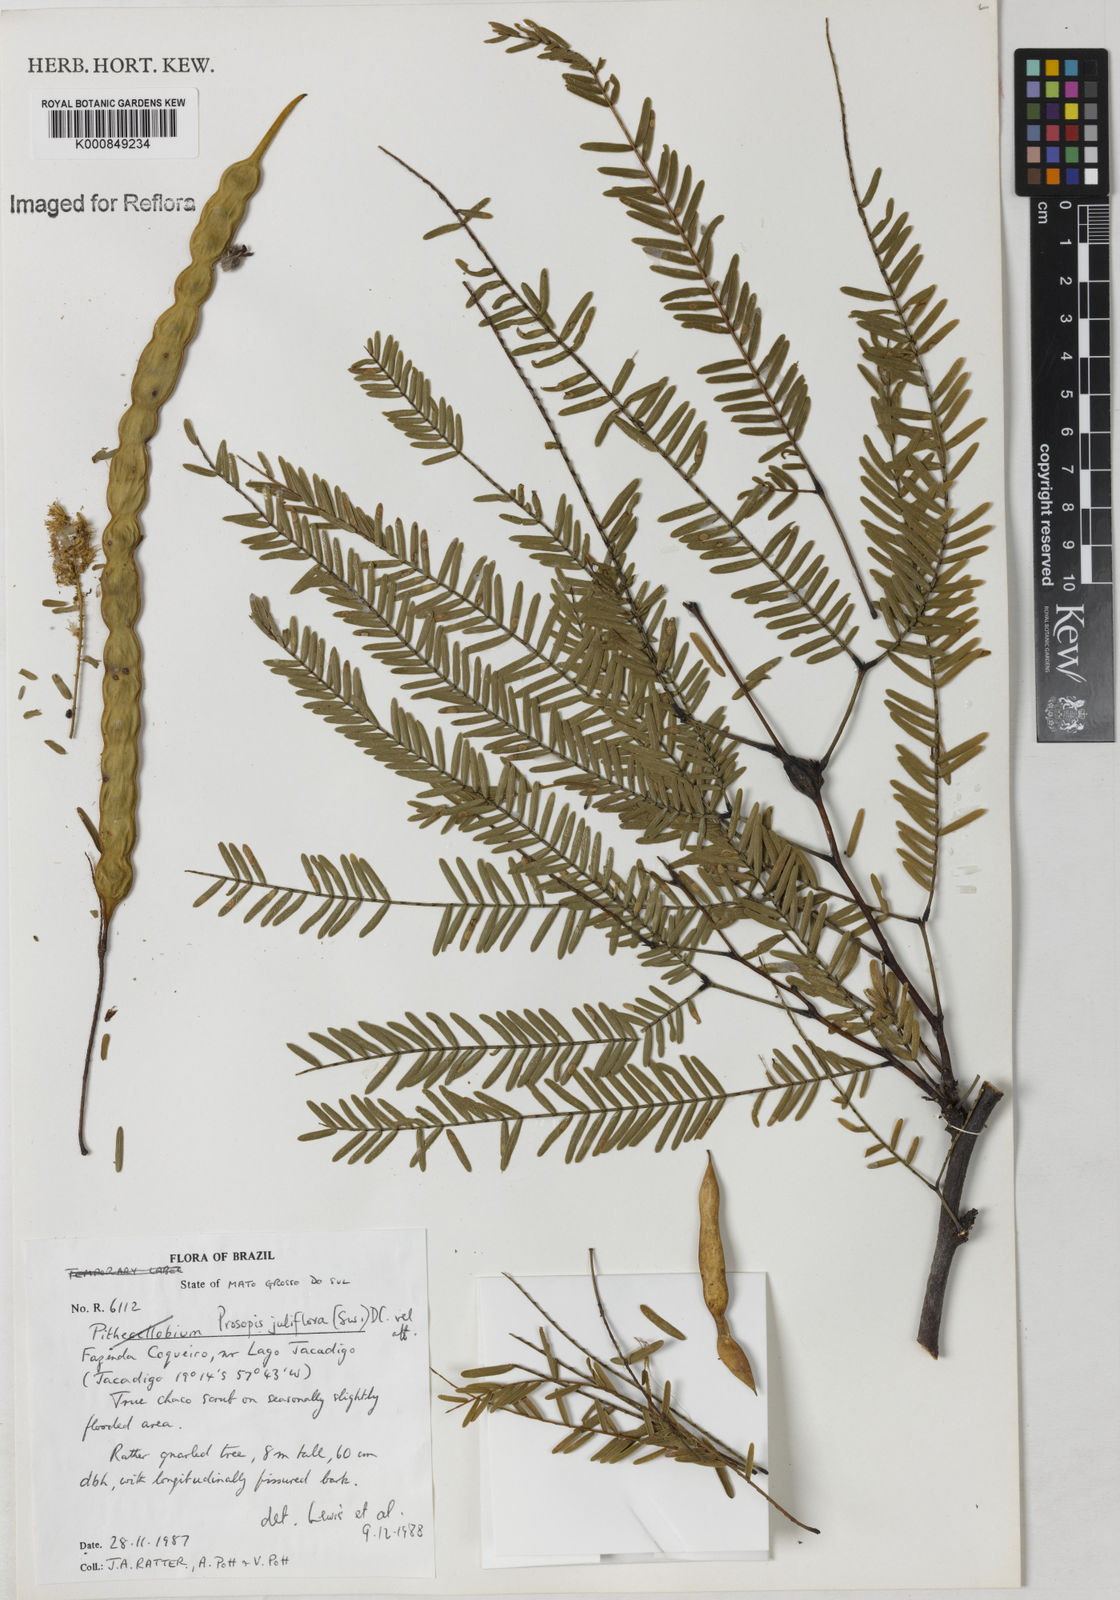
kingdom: Plantae
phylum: Tracheophyta
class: Magnoliopsida
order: Fabales
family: Fabaceae
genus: Prosopis
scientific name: Prosopis juliflora
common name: Mesquite
